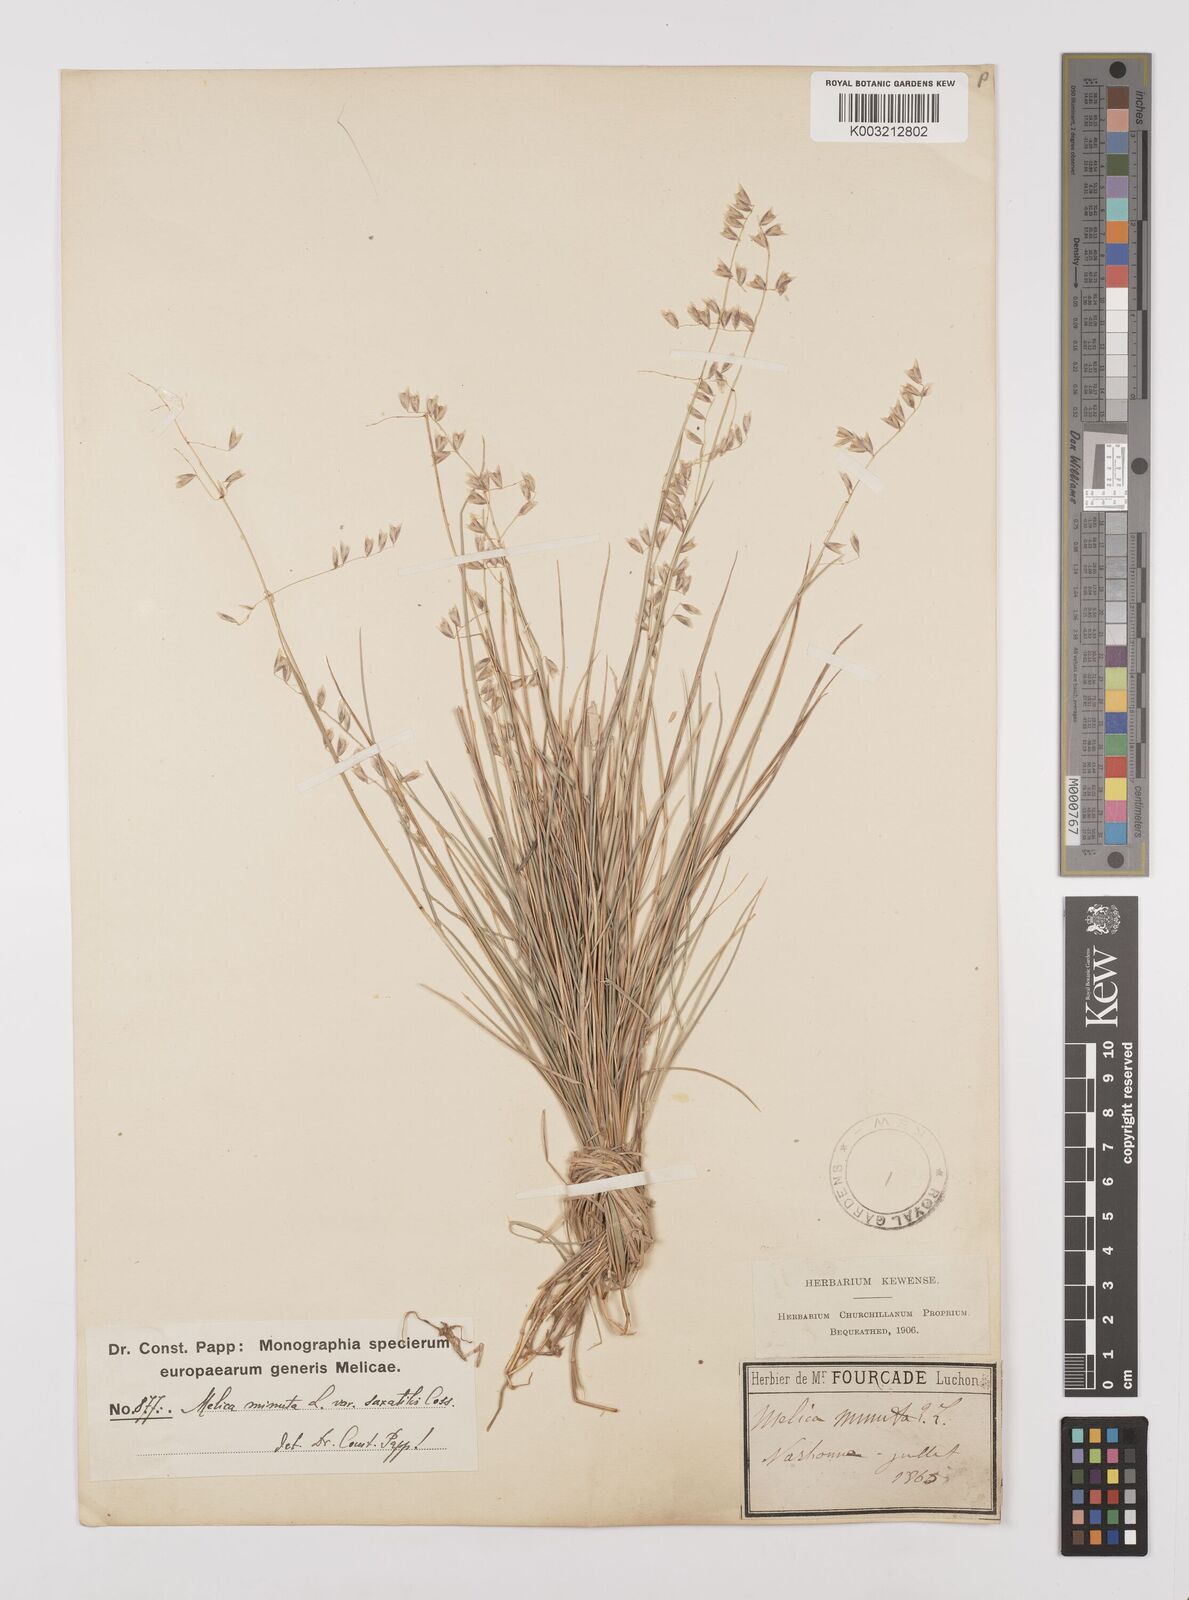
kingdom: Plantae
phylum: Tracheophyta
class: Liliopsida
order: Poales
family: Poaceae
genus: Melica
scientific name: Melica minuta
